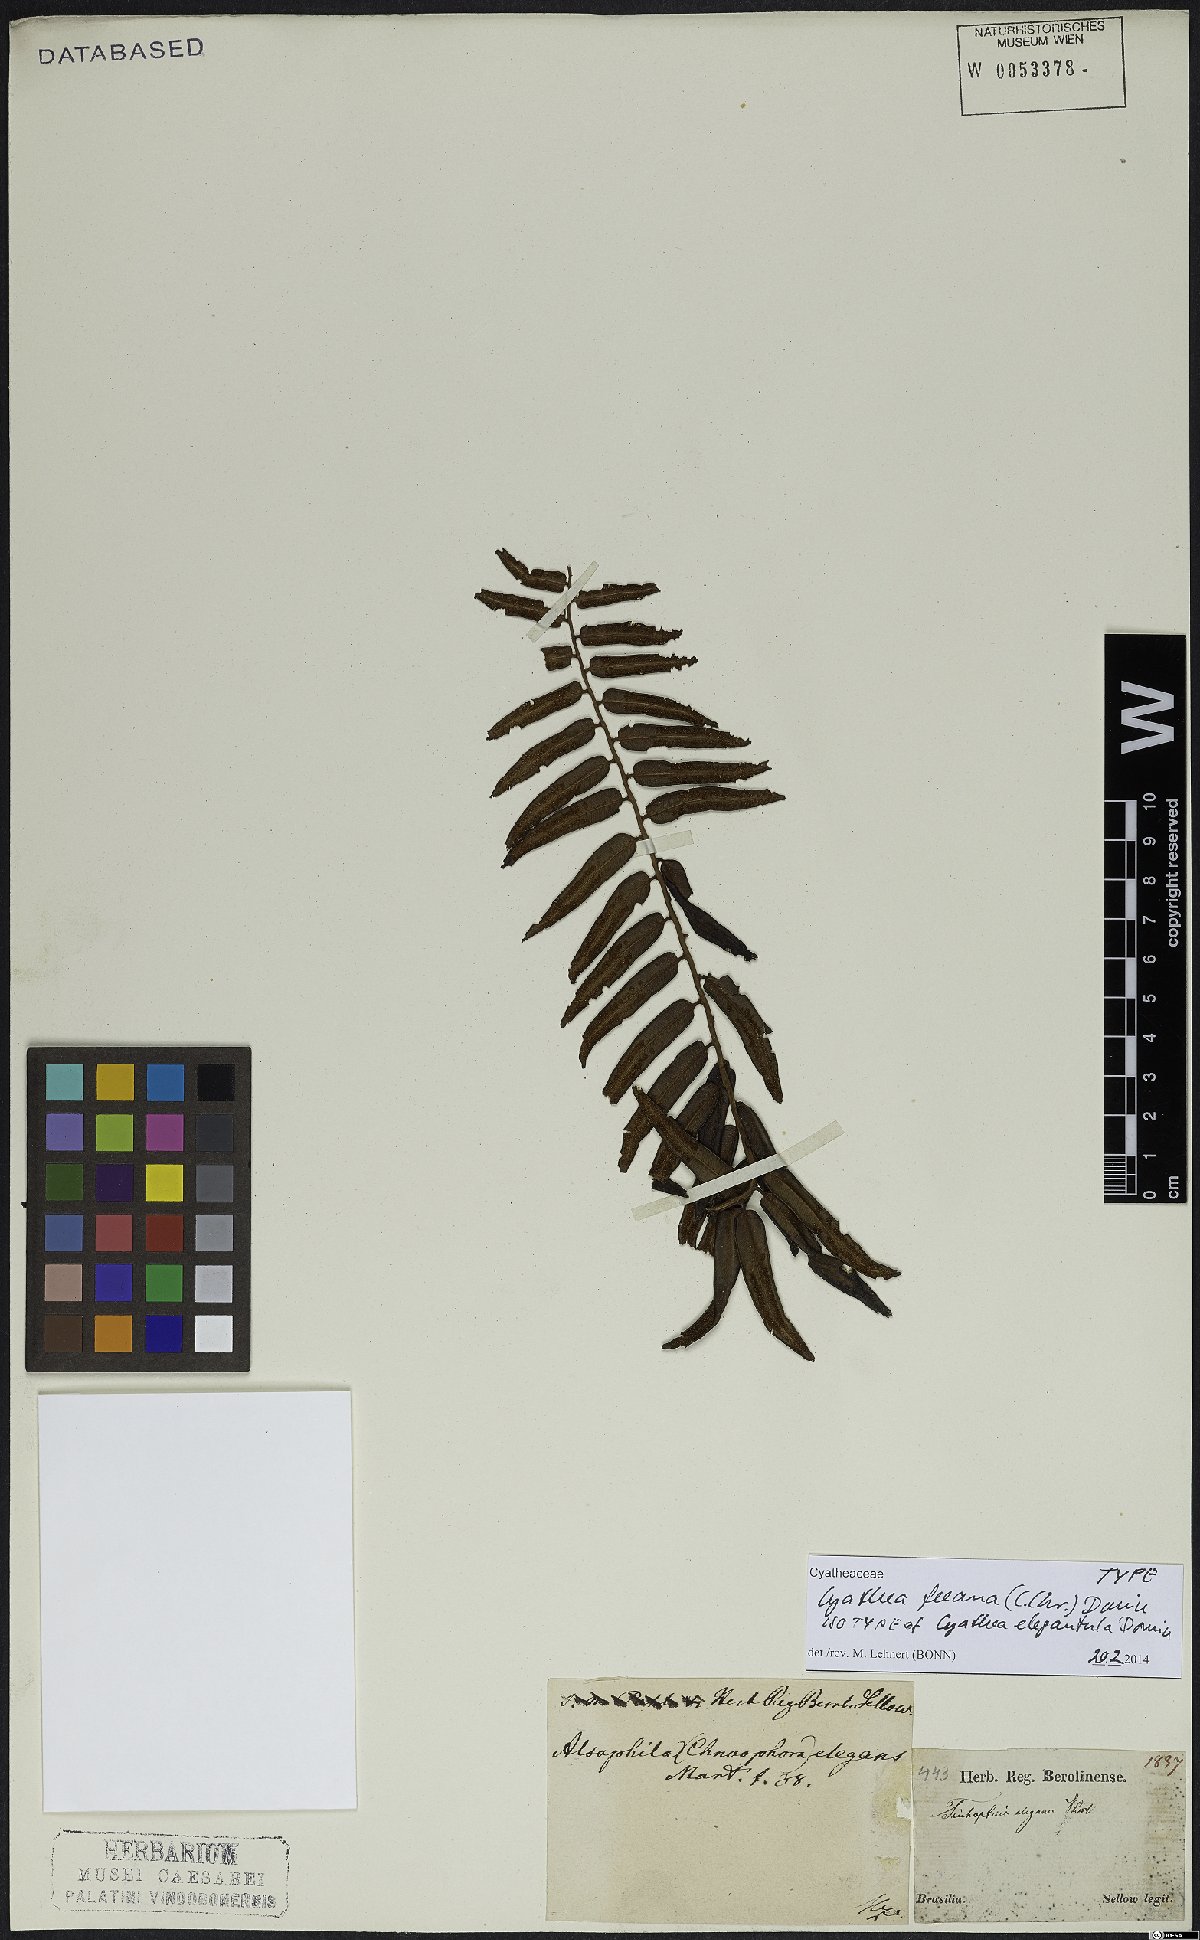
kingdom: Plantae
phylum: Tracheophyta
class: Polypodiopsida
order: Cyatheales
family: Cyatheaceae
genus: Cyathea
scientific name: Cyathea feeana
